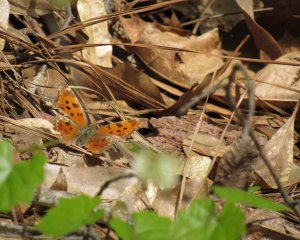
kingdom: Animalia
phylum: Arthropoda
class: Insecta
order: Lepidoptera
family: Nymphalidae
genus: Polygonia
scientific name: Polygonia comma
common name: Eastern Comma
